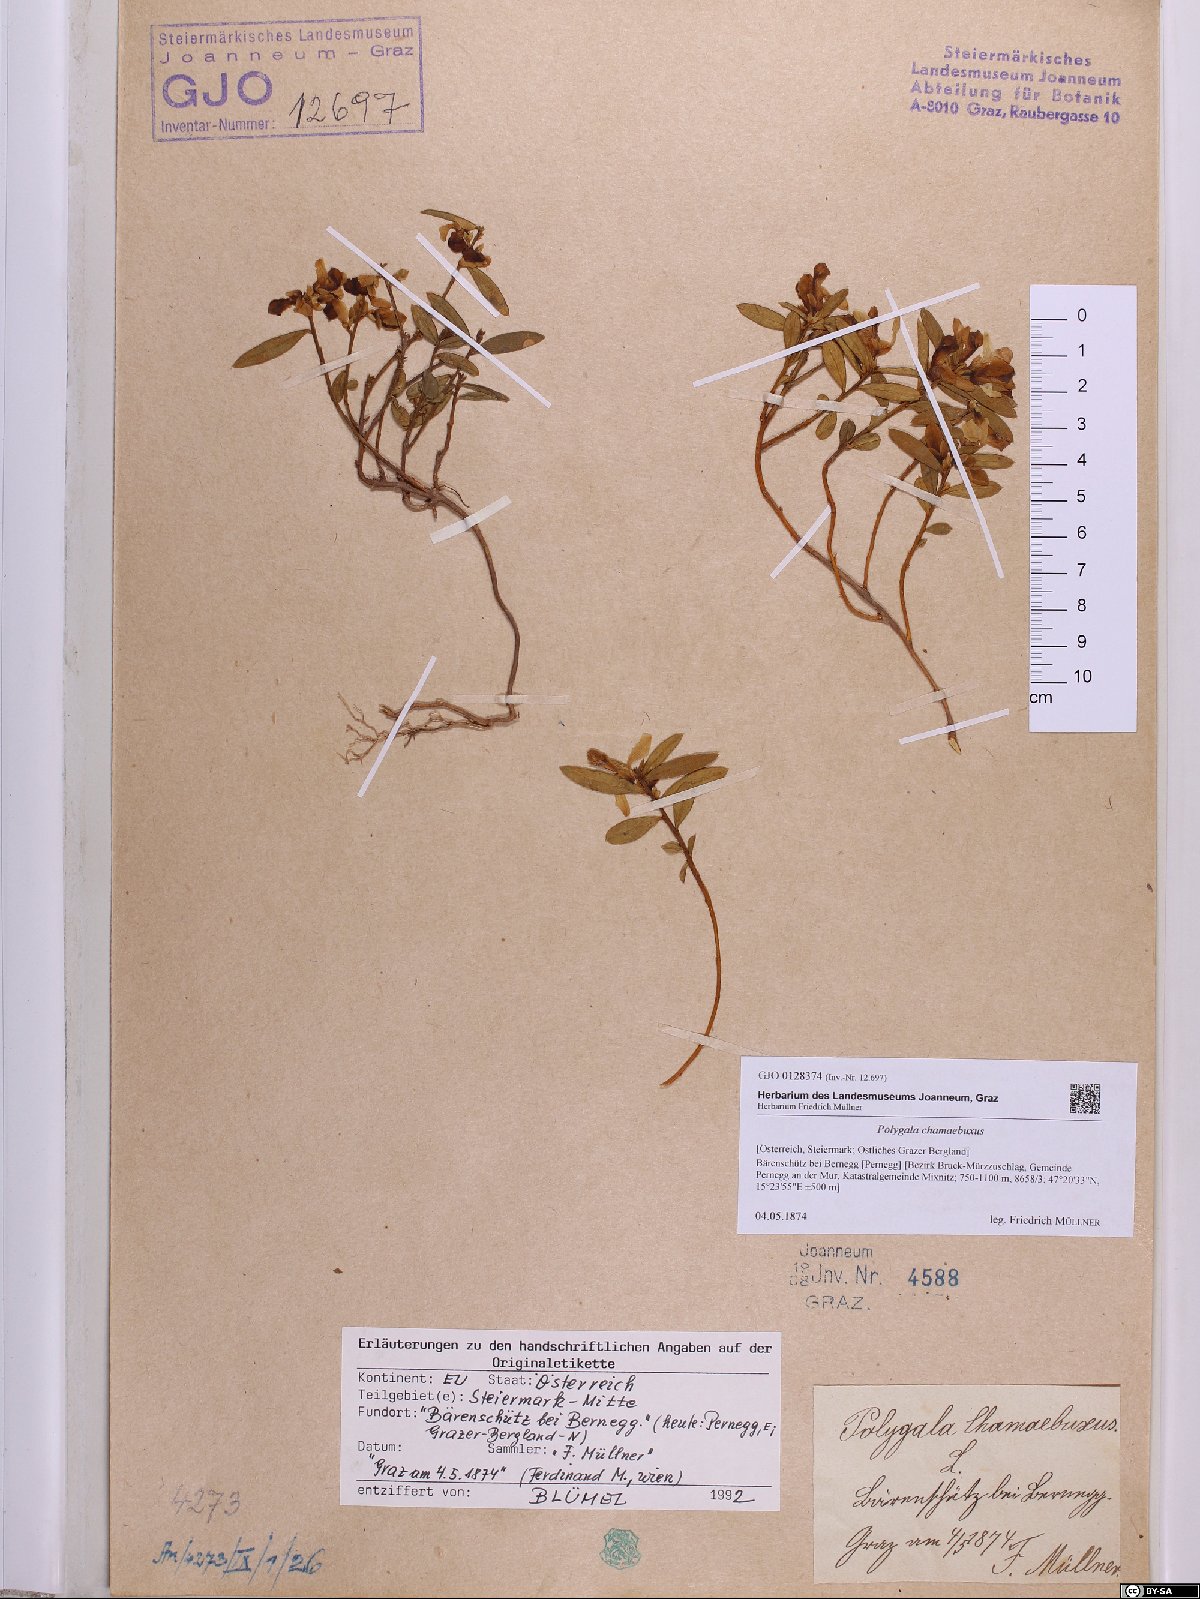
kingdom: Plantae
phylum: Tracheophyta
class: Magnoliopsida
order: Fabales
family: Polygalaceae
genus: Polygaloides
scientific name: Polygaloides chamaebuxus
